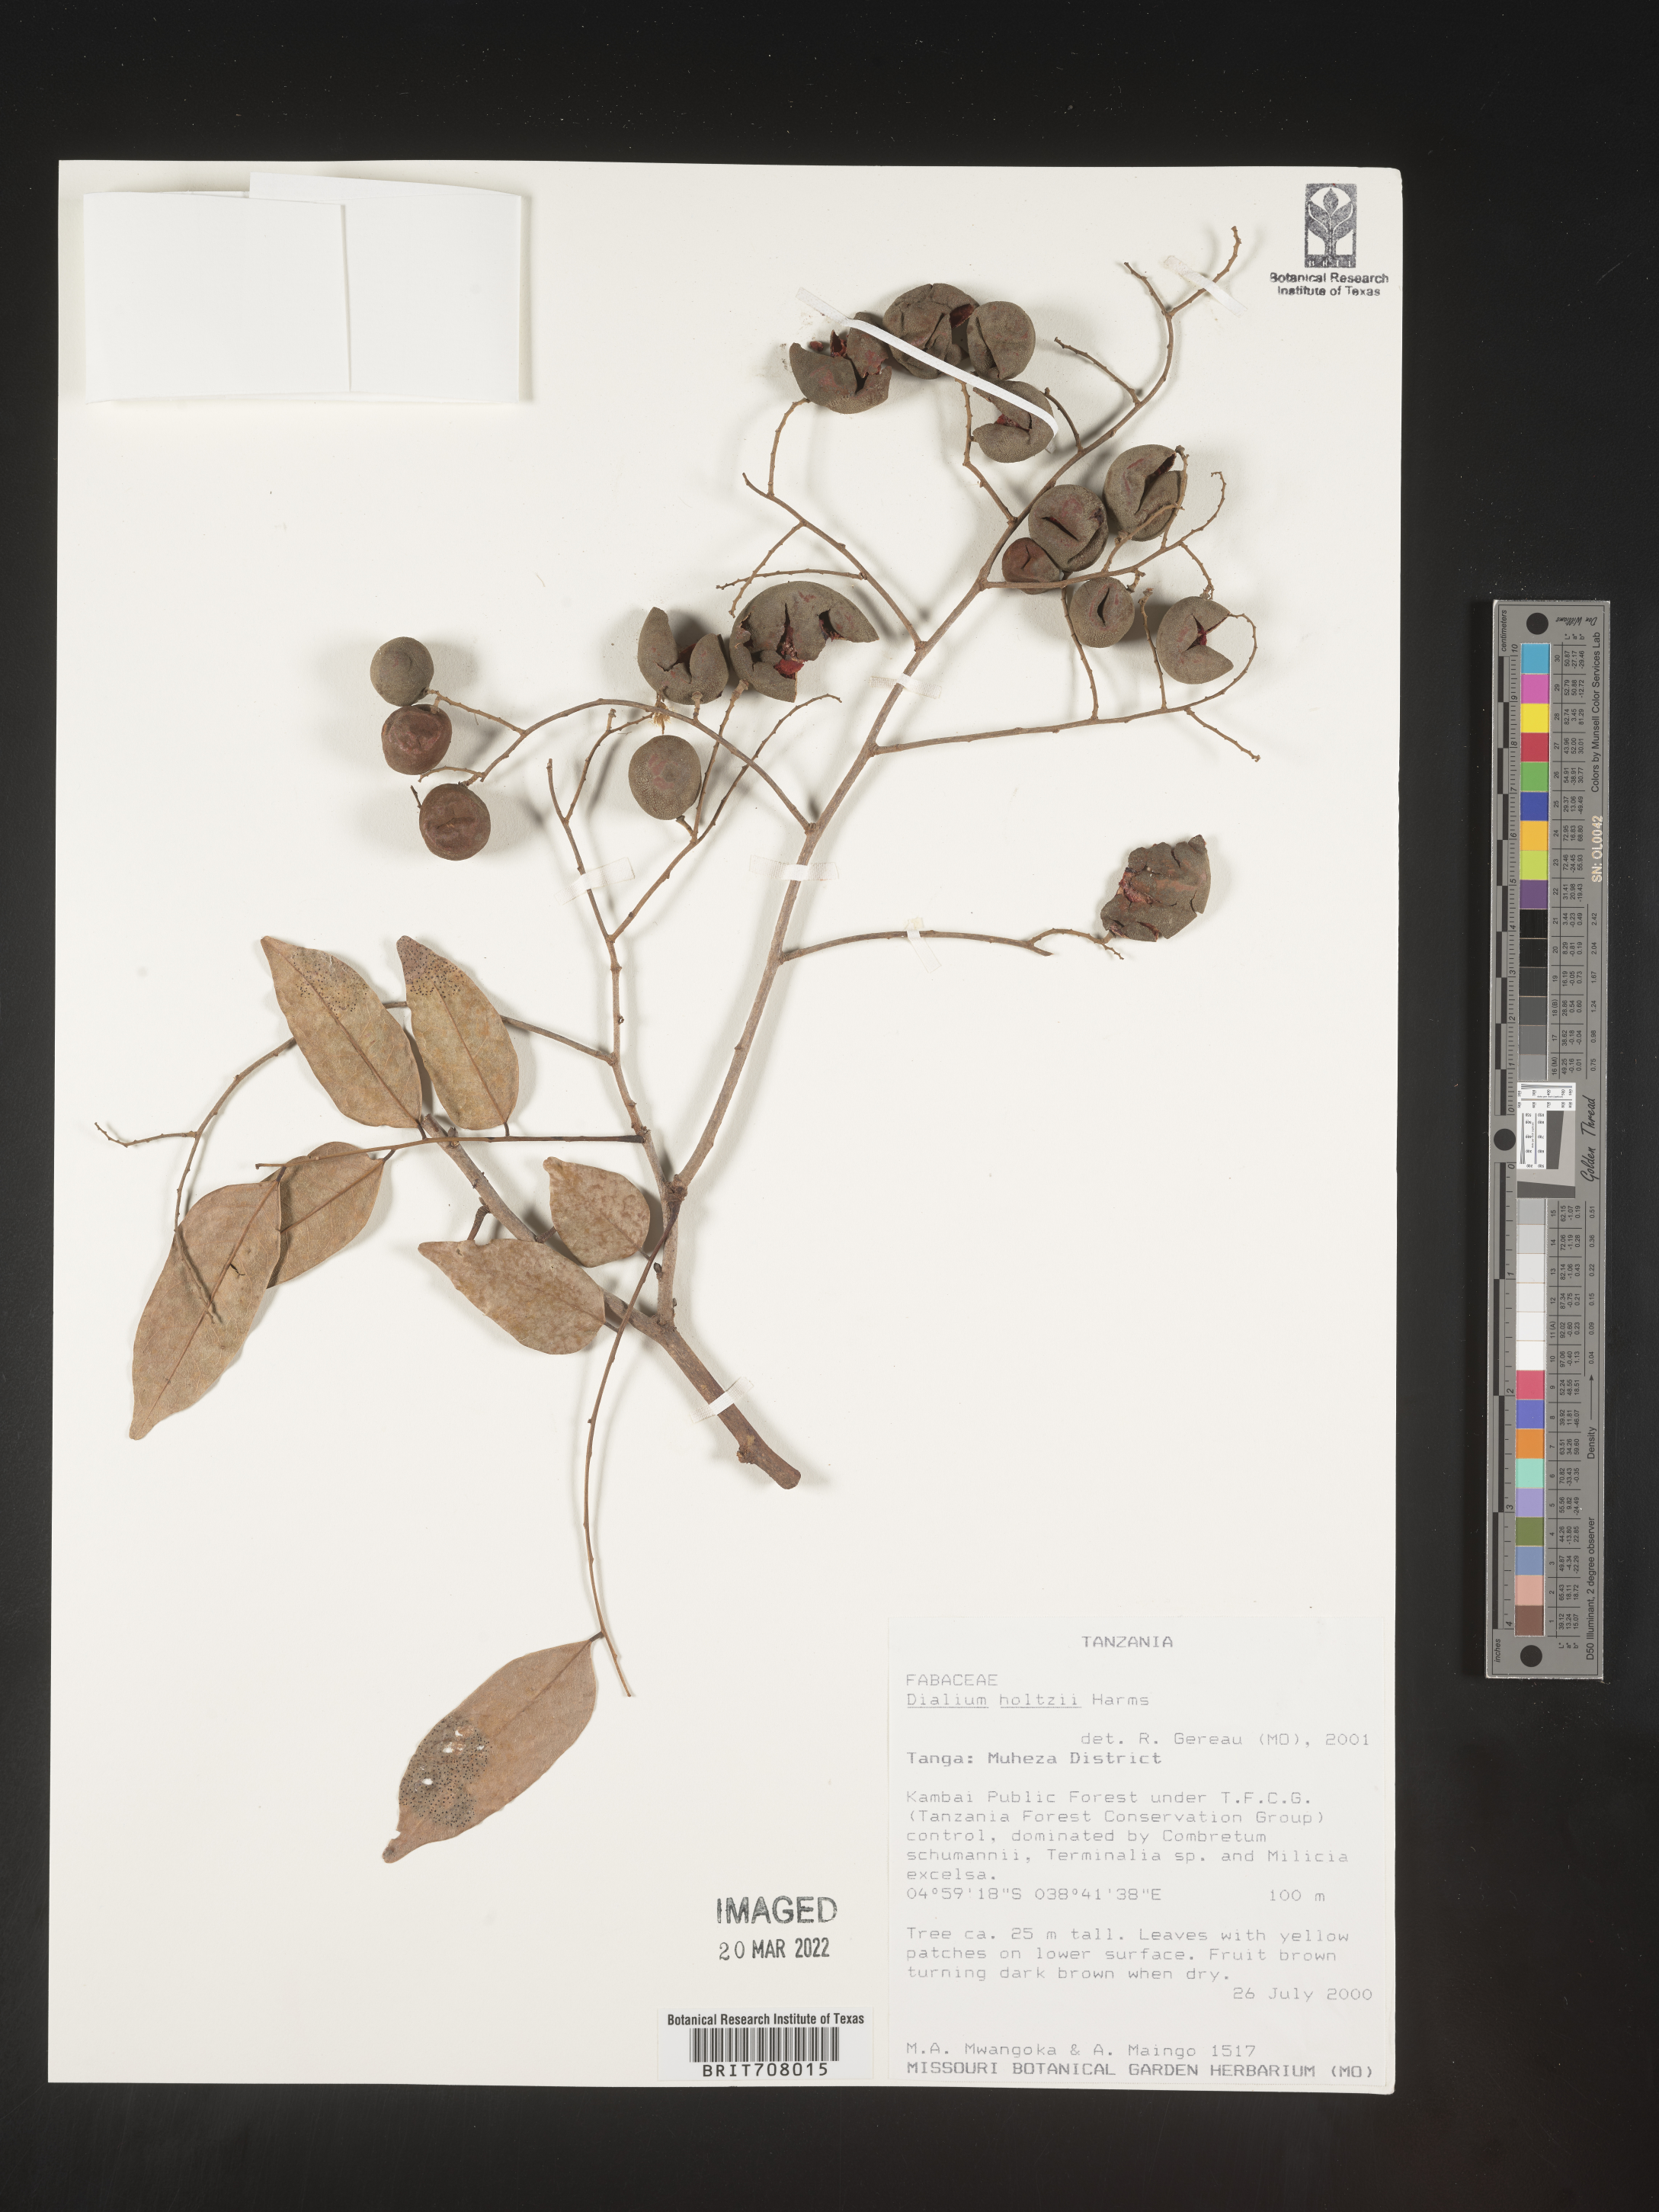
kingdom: Plantae
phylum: Tracheophyta
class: Magnoliopsida
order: Fabales
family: Fabaceae
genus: Dialium
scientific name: Dialium
